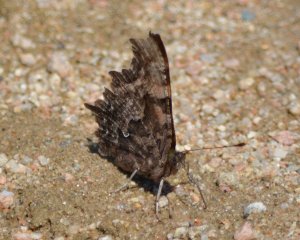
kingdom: Animalia
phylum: Arthropoda
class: Insecta
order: Lepidoptera
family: Nymphalidae
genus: Polygonia
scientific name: Polygonia faunus
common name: Green Comma
